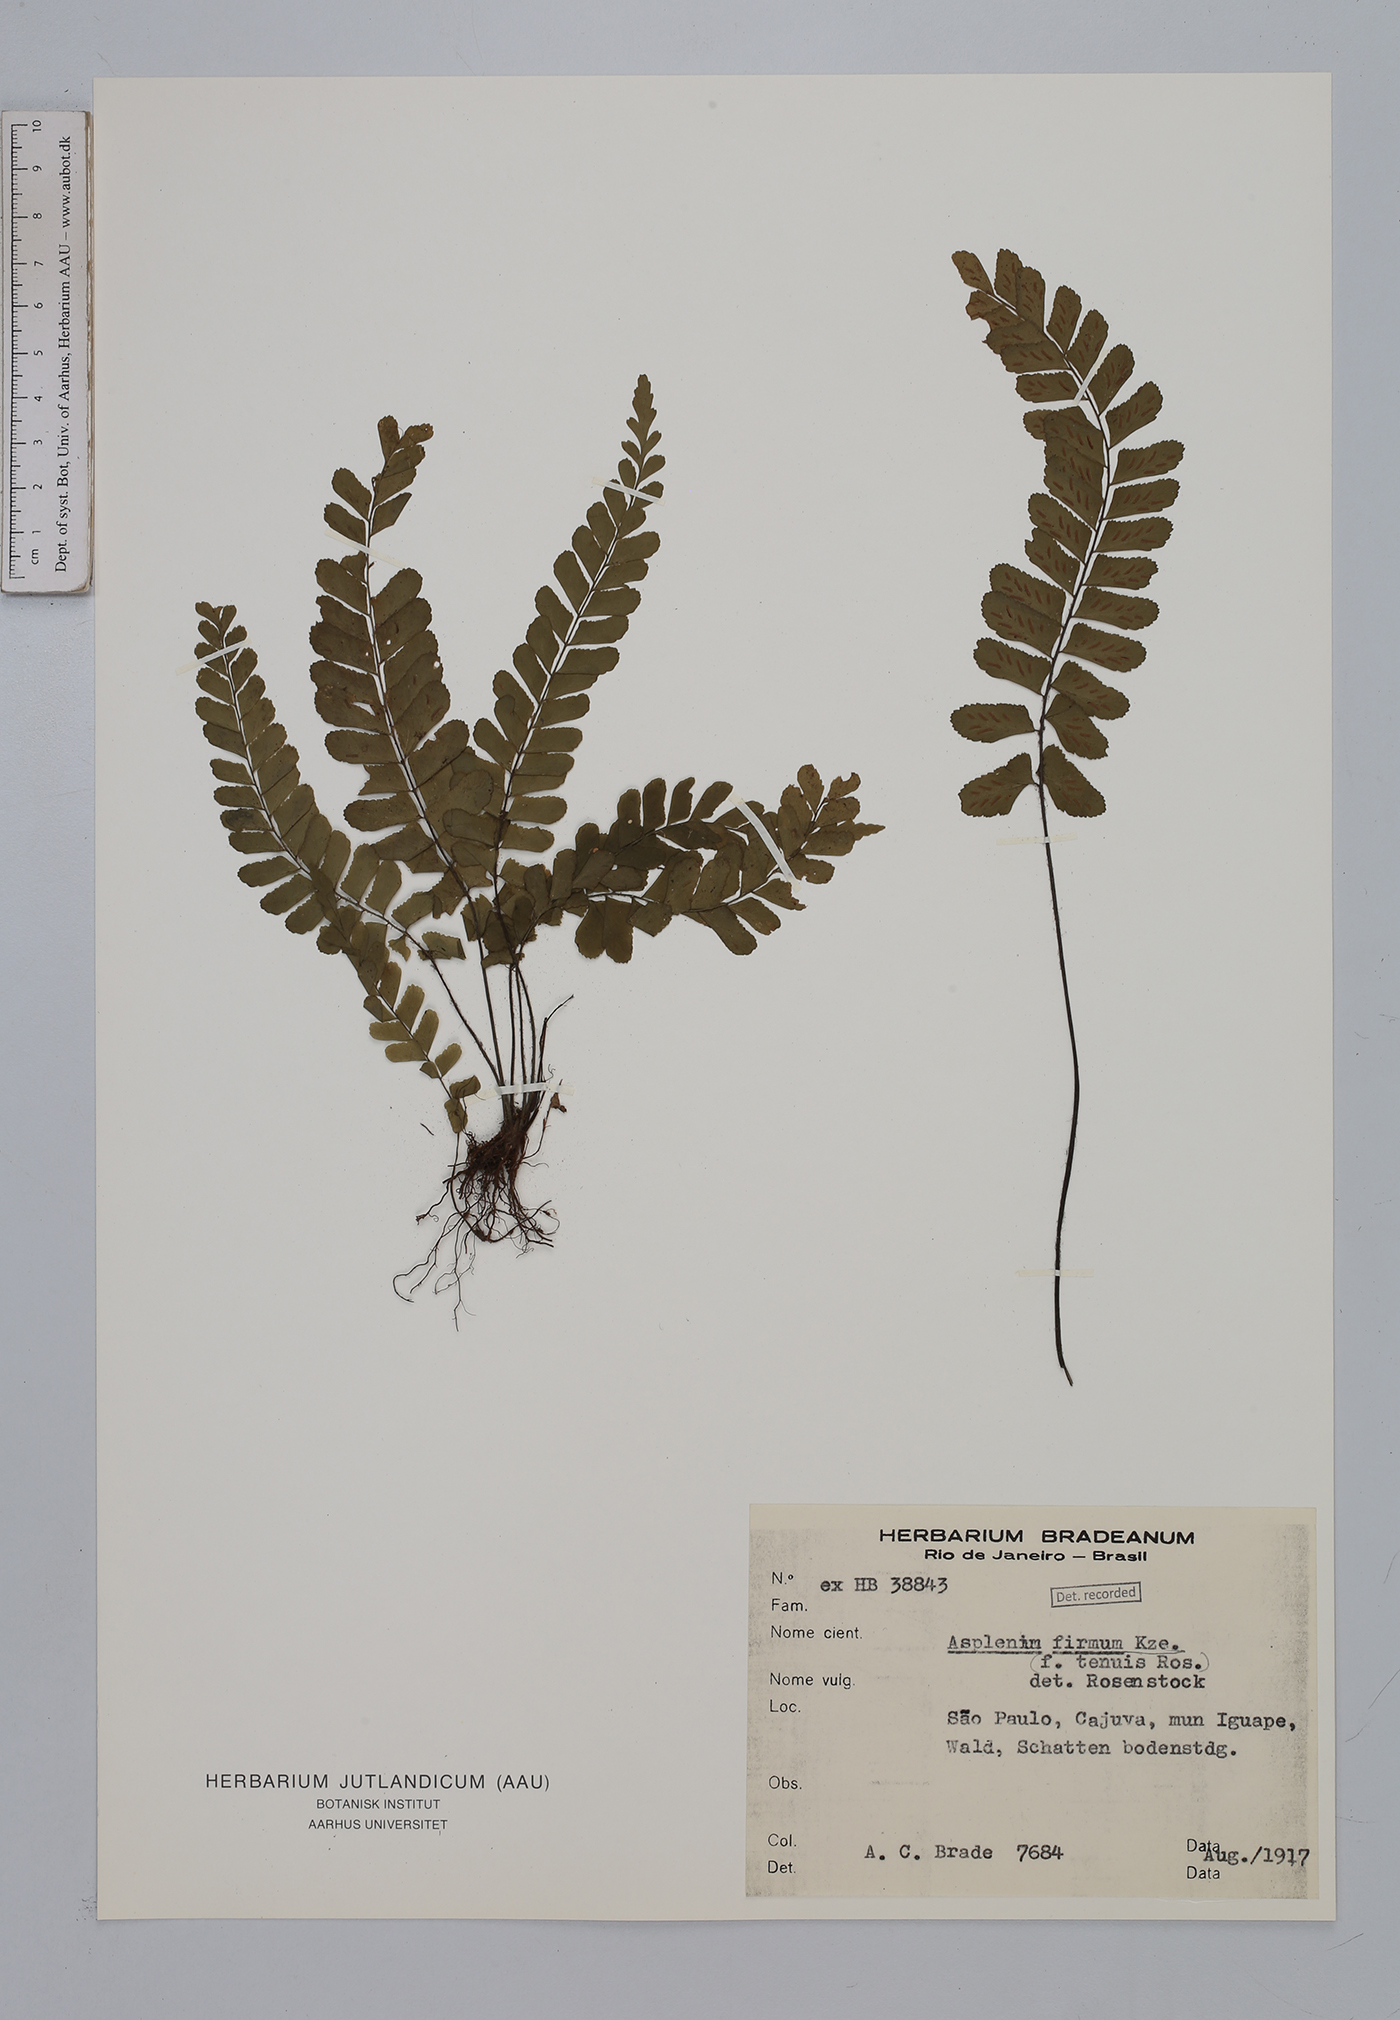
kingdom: Plantae
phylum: Tracheophyta
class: Polypodiopsida
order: Polypodiales
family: Aspleniaceae
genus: Asplenium
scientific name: Asplenium abscissum
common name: Cutleaf spleenwort
